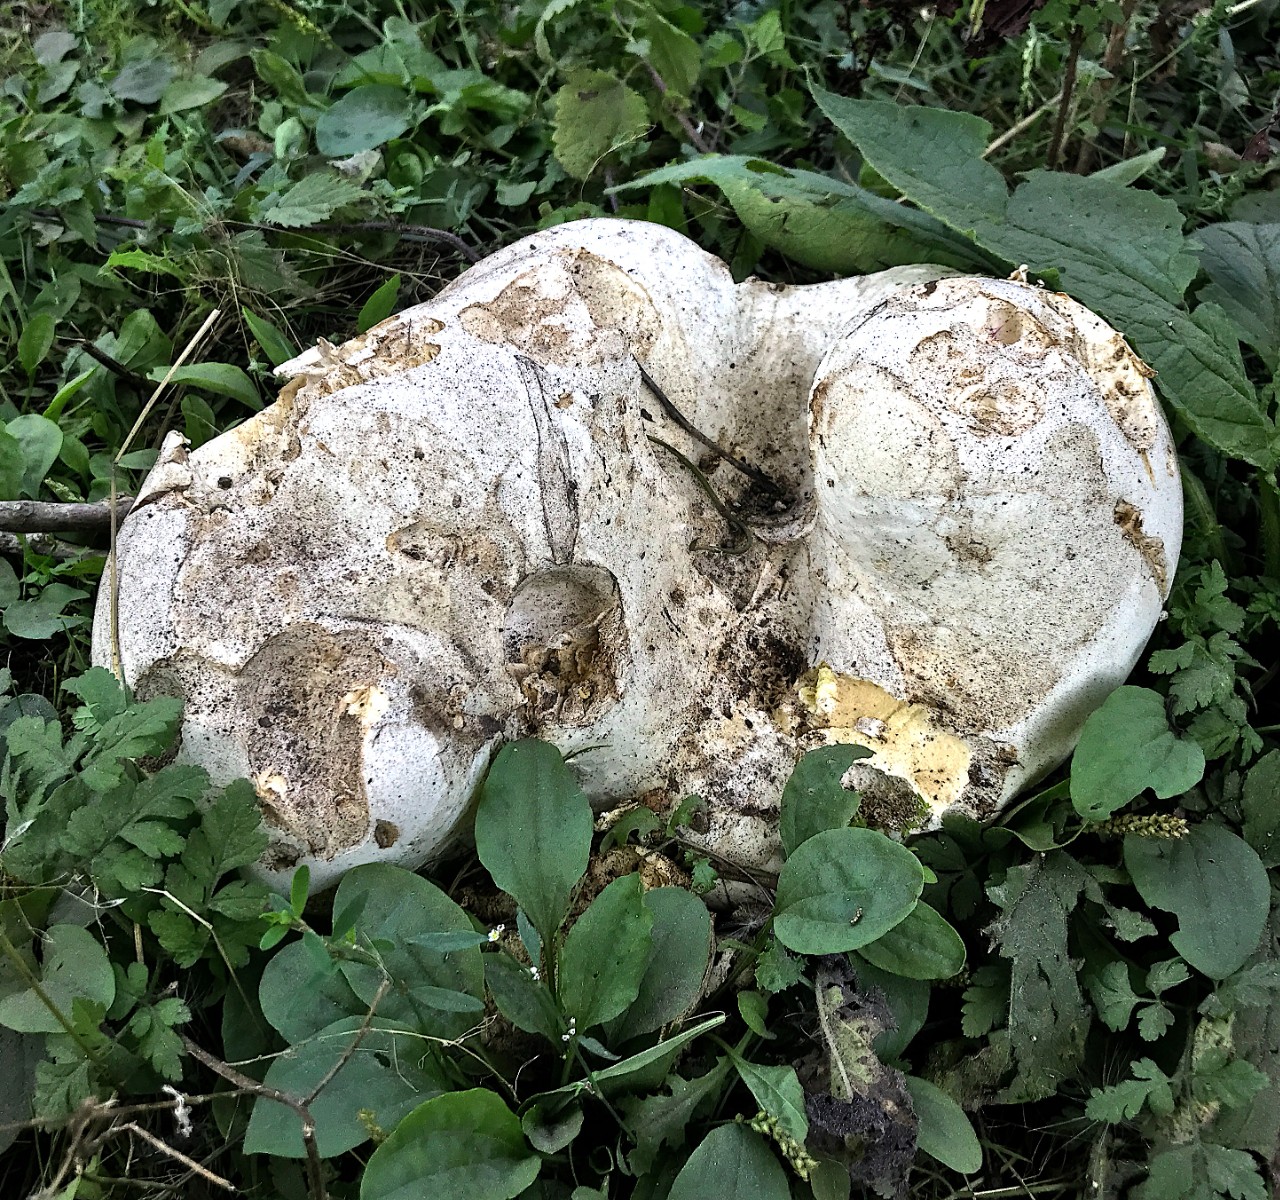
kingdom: Fungi
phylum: Basidiomycota
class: Agaricomycetes
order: Agaricales
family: Lycoperdaceae
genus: Calvatia
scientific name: Calvatia gigantea
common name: kæmpestøvbold
